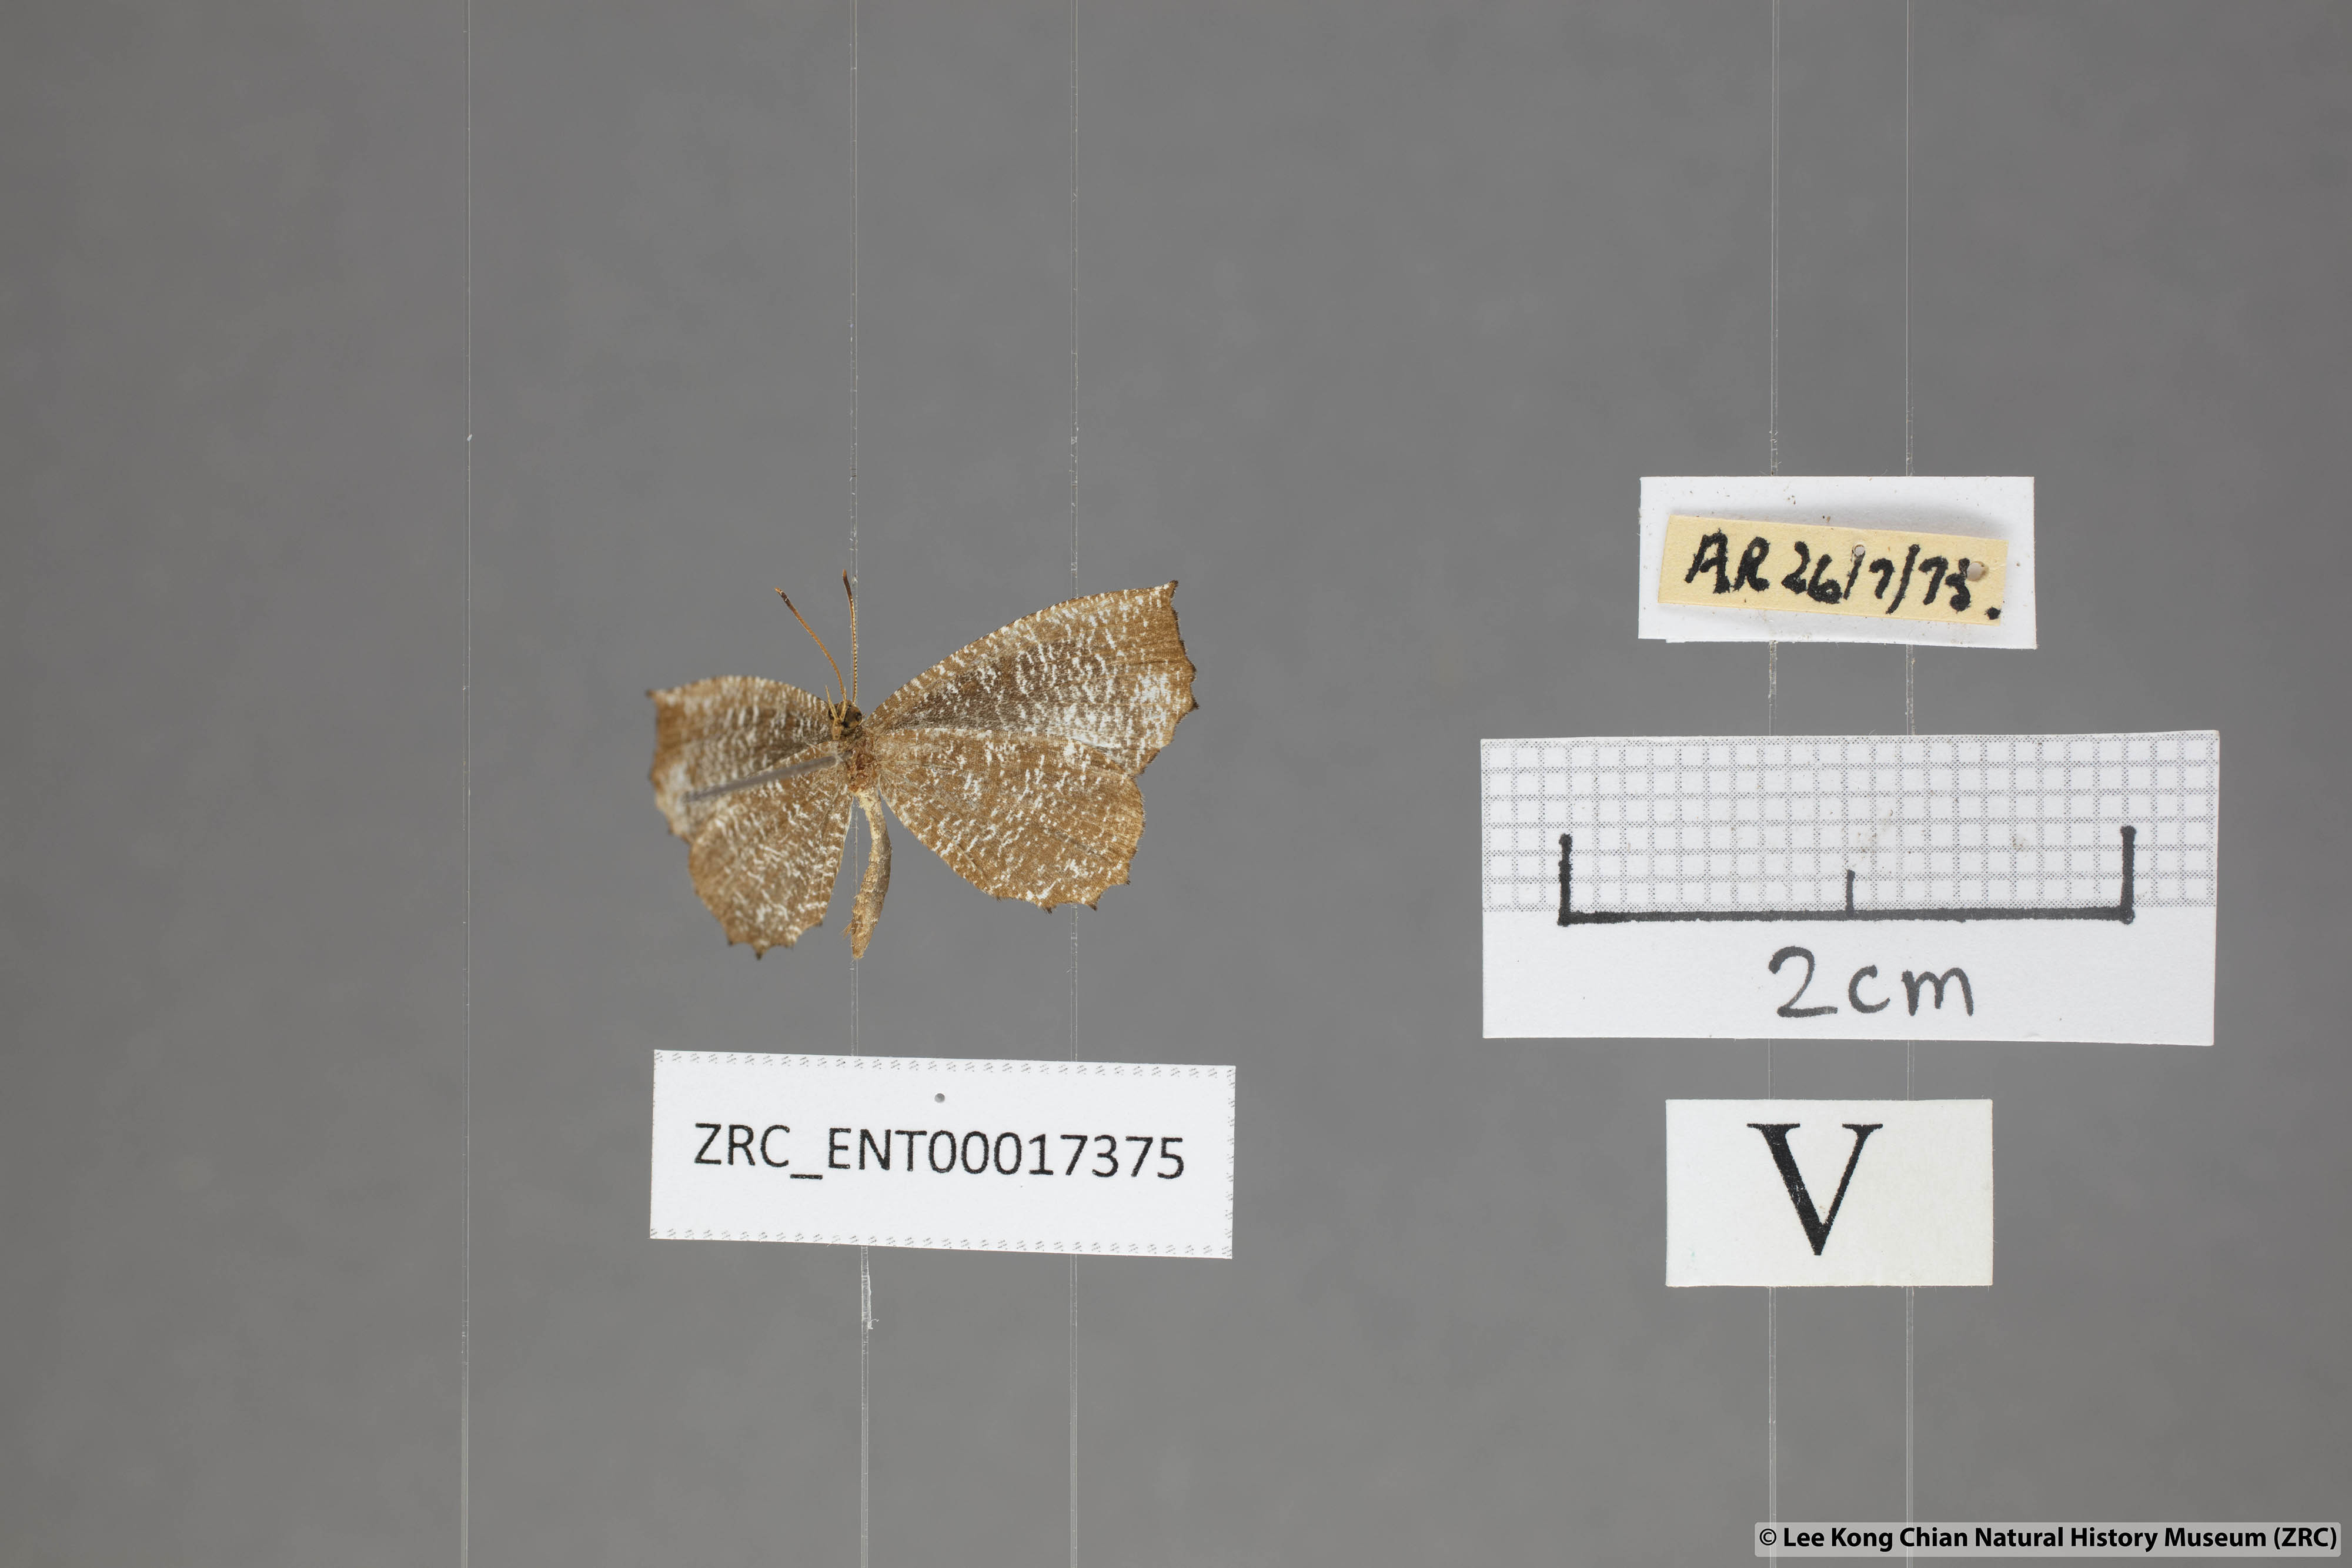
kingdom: Animalia
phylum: Arthropoda
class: Insecta
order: Lepidoptera
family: Lycaenidae
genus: Logania
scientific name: Logania malayica
